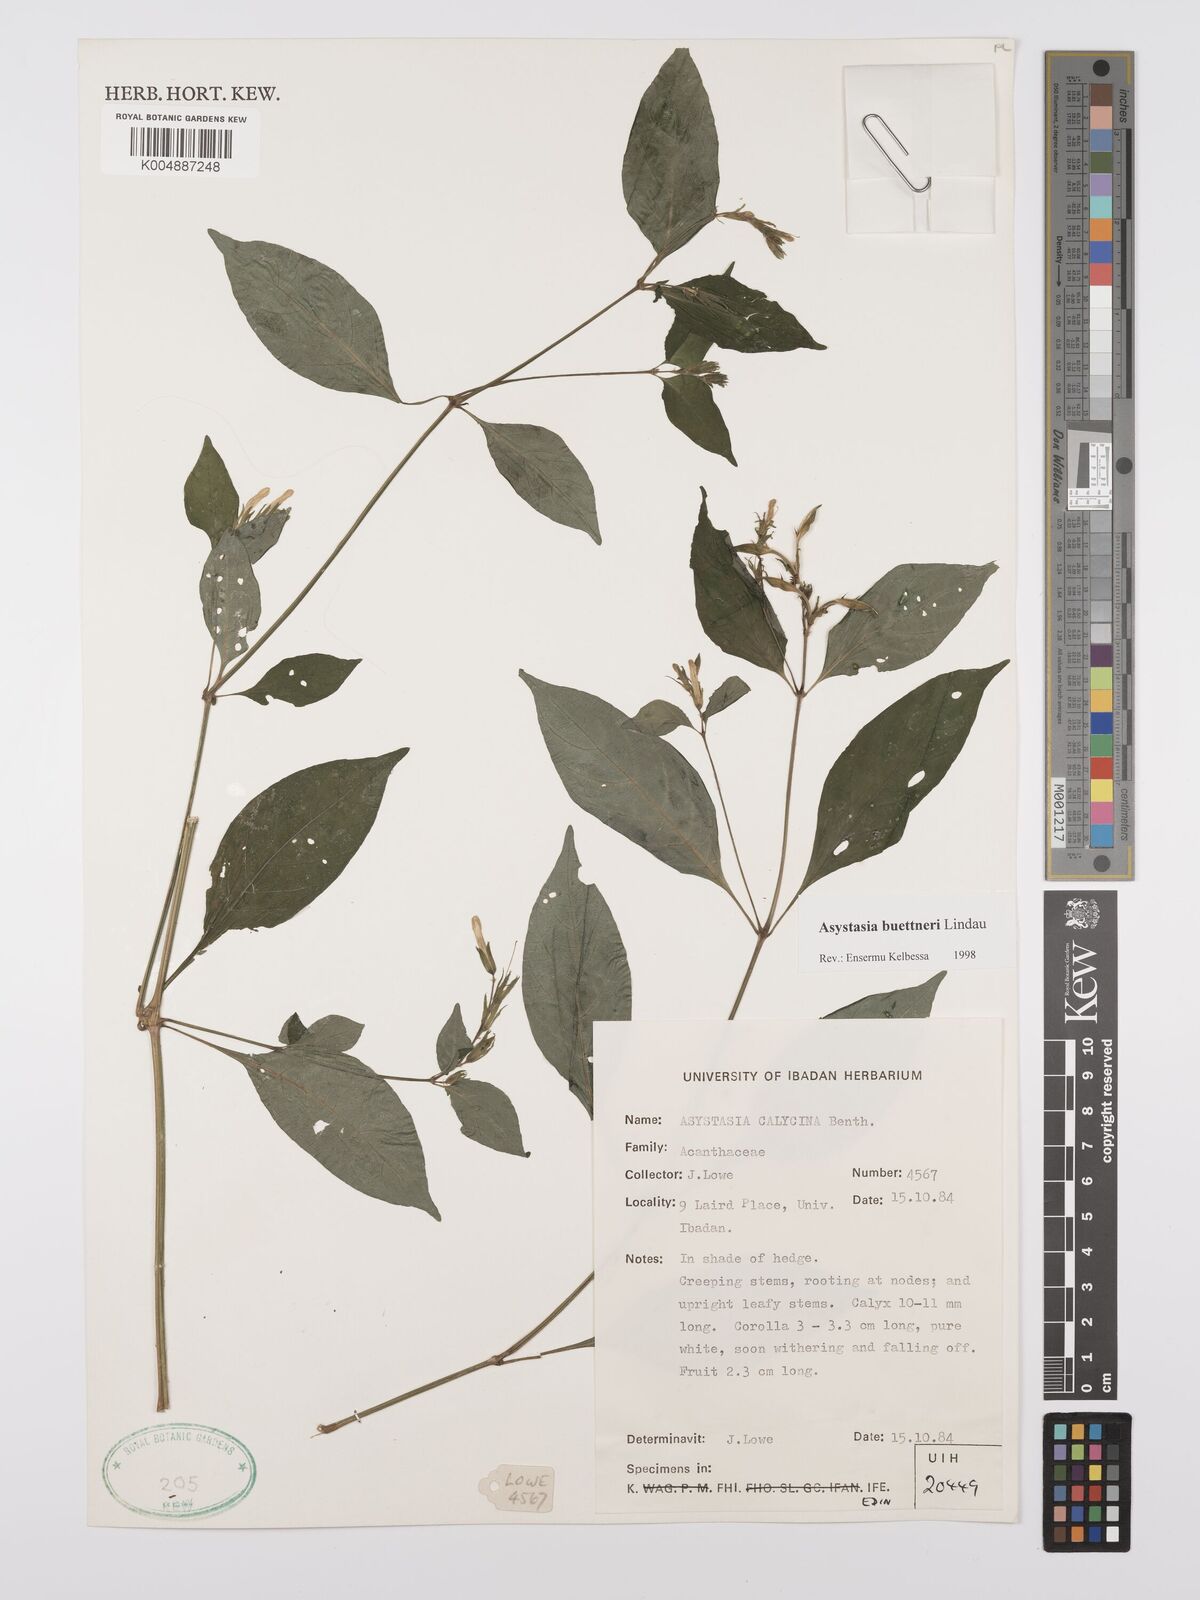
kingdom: Plantae
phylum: Tracheophyta
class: Magnoliopsida
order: Lamiales
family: Acanthaceae
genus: Asystasia
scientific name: Asystasia buettneri
